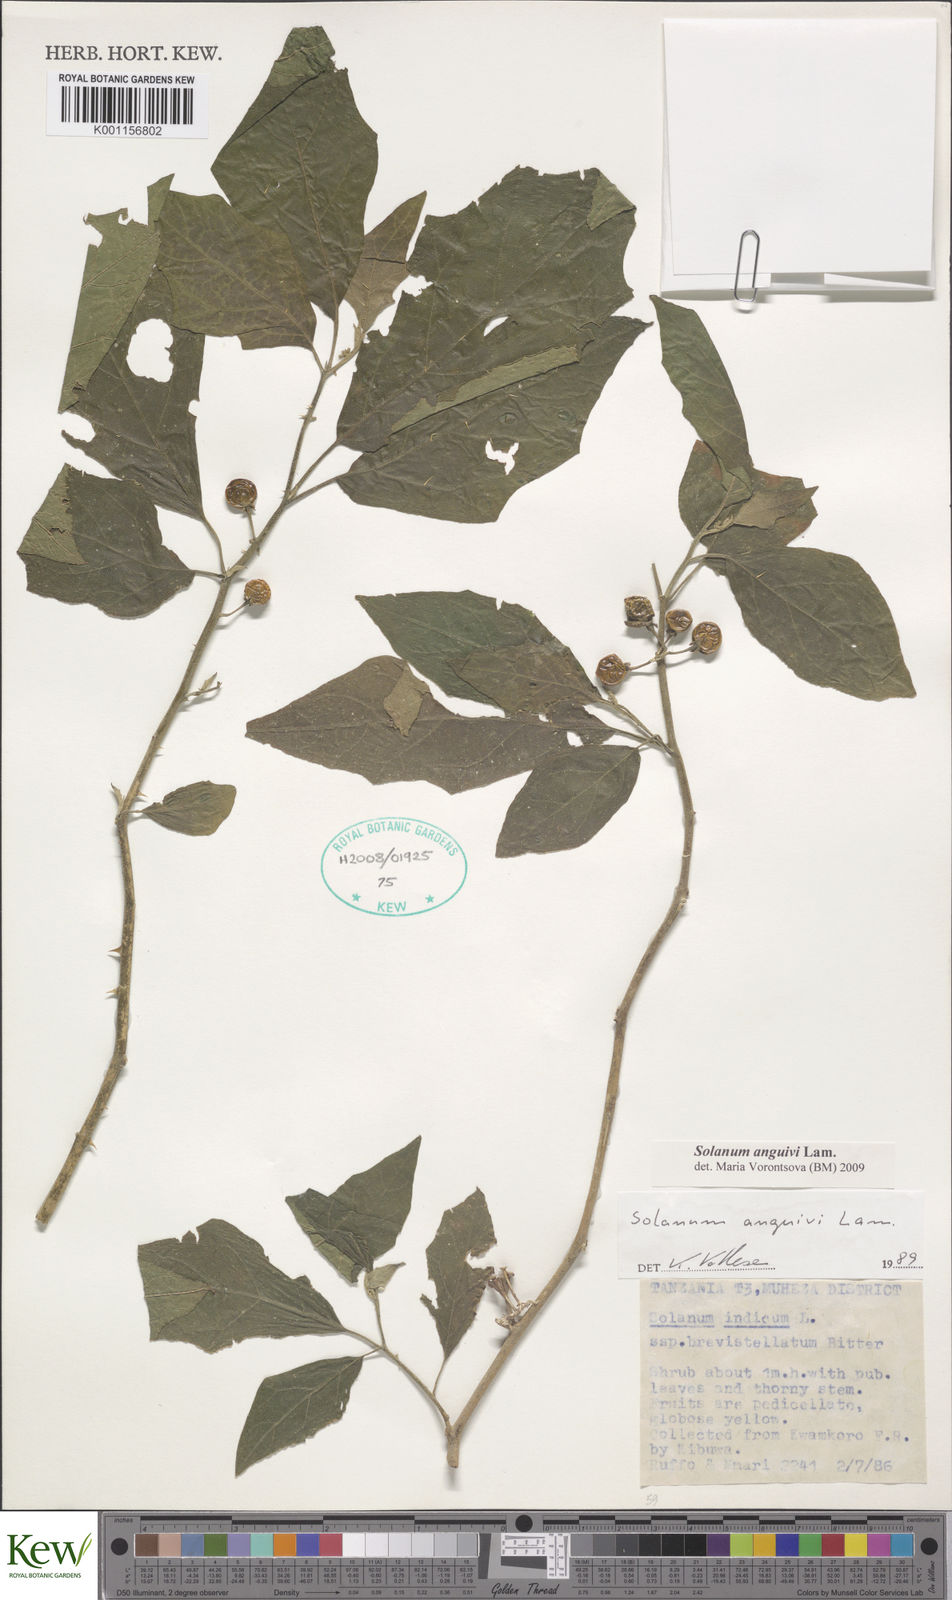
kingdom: Plantae
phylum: Tracheophyta
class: Magnoliopsida
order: Solanales
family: Solanaceae
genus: Solanum
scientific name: Solanum anguivi
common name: Forest bitterberry
